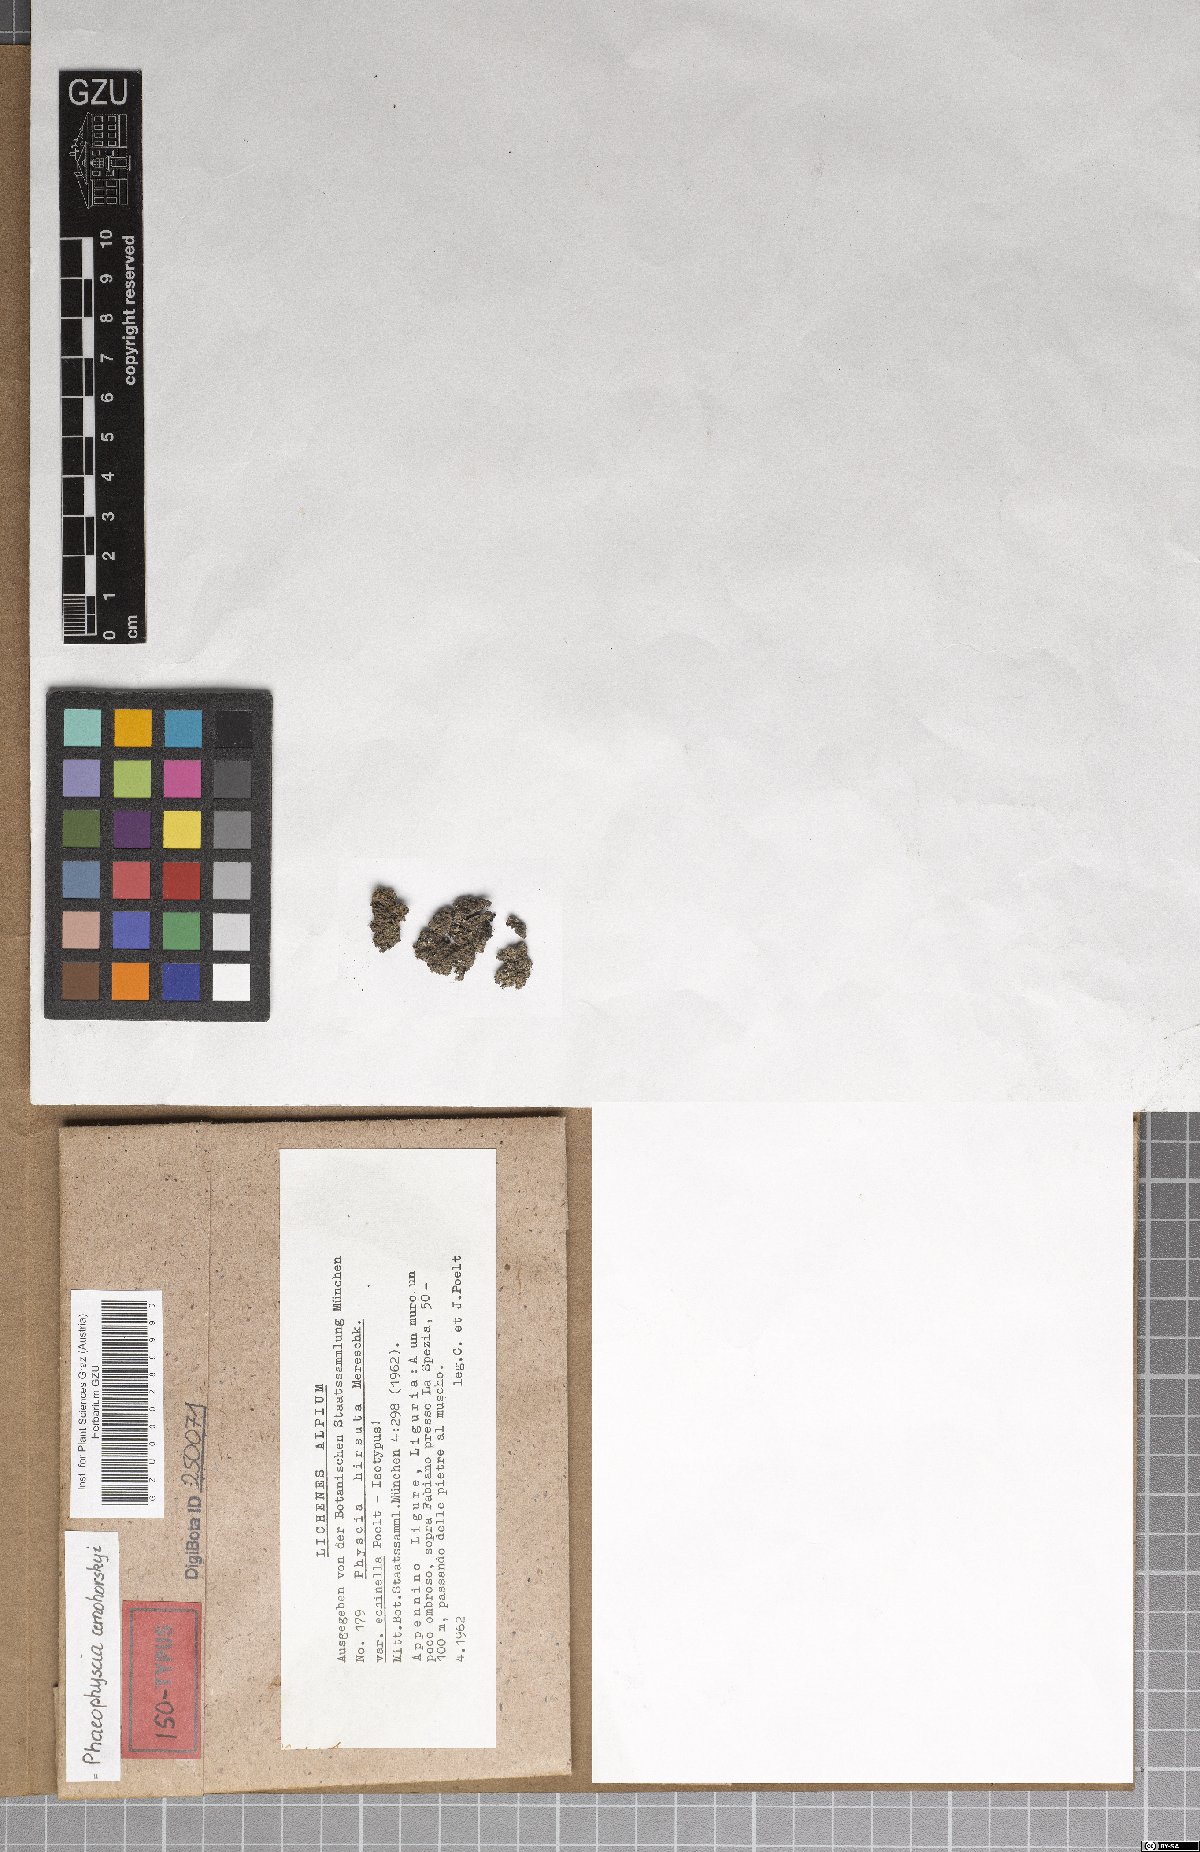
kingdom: Fungi
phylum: Ascomycota
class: Lecanoromycetes
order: Caliciales
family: Physciaceae
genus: Phaeophyscia
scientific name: Phaeophyscia cernohorskyi
